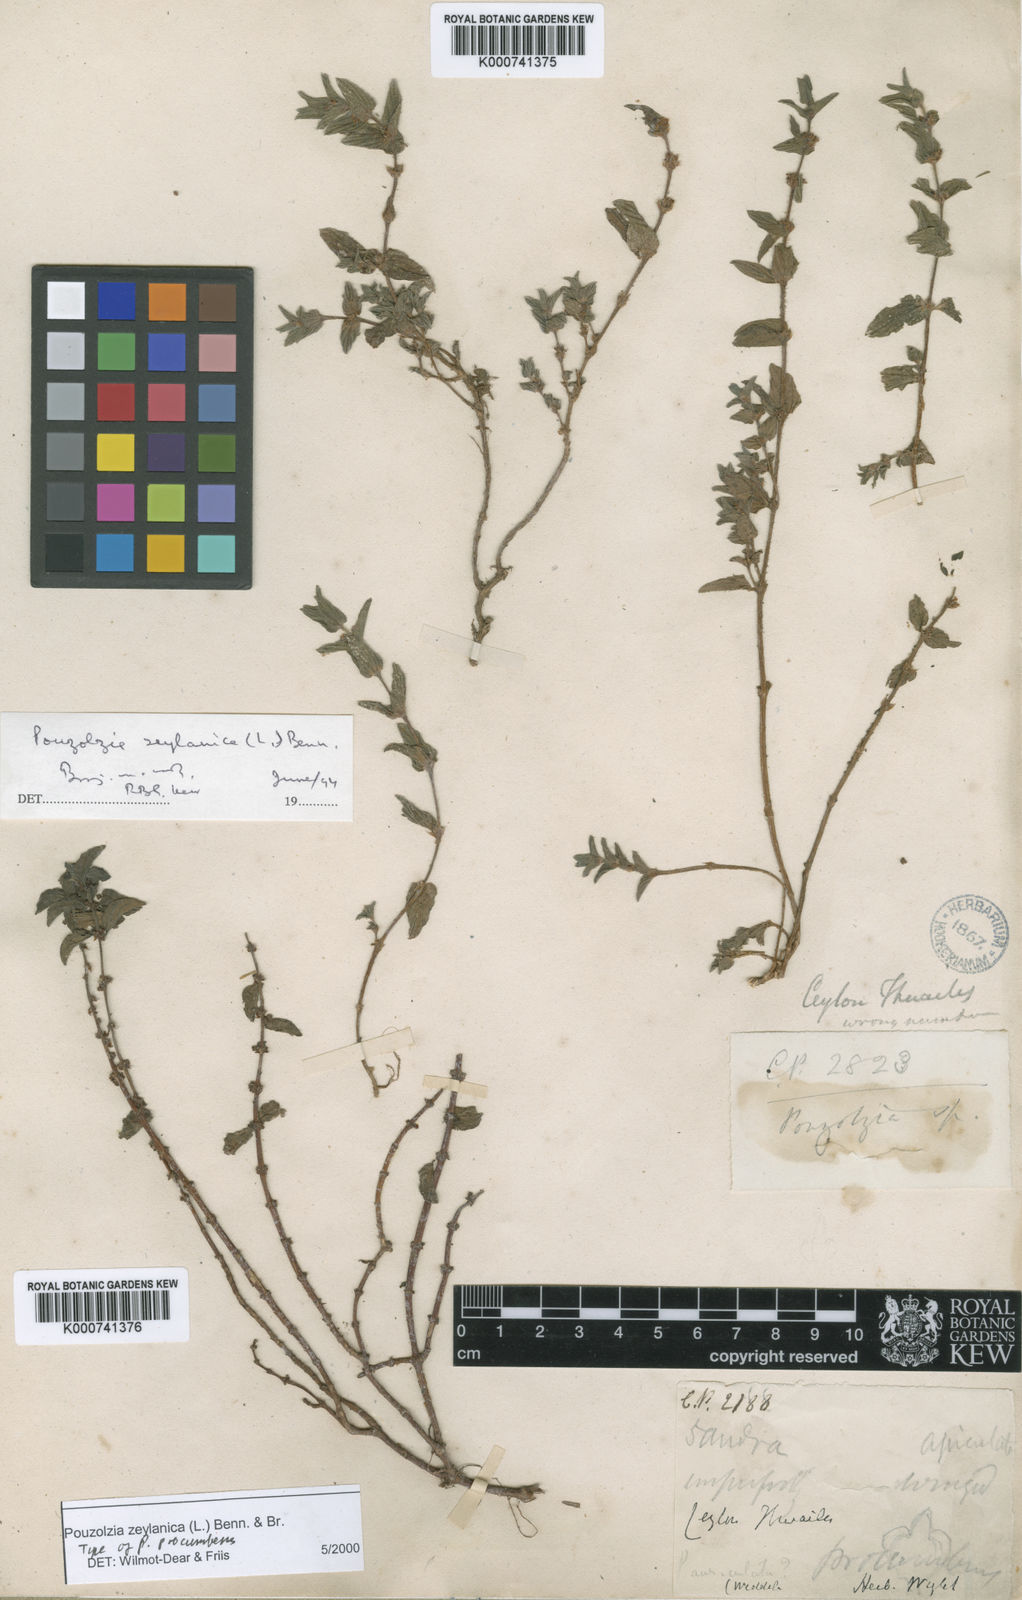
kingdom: Plantae
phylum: Tracheophyta
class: Magnoliopsida
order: Rosales
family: Urticaceae
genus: Pouzolzia
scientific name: Pouzolzia zeylanica
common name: Graceful pouzolzsbush
